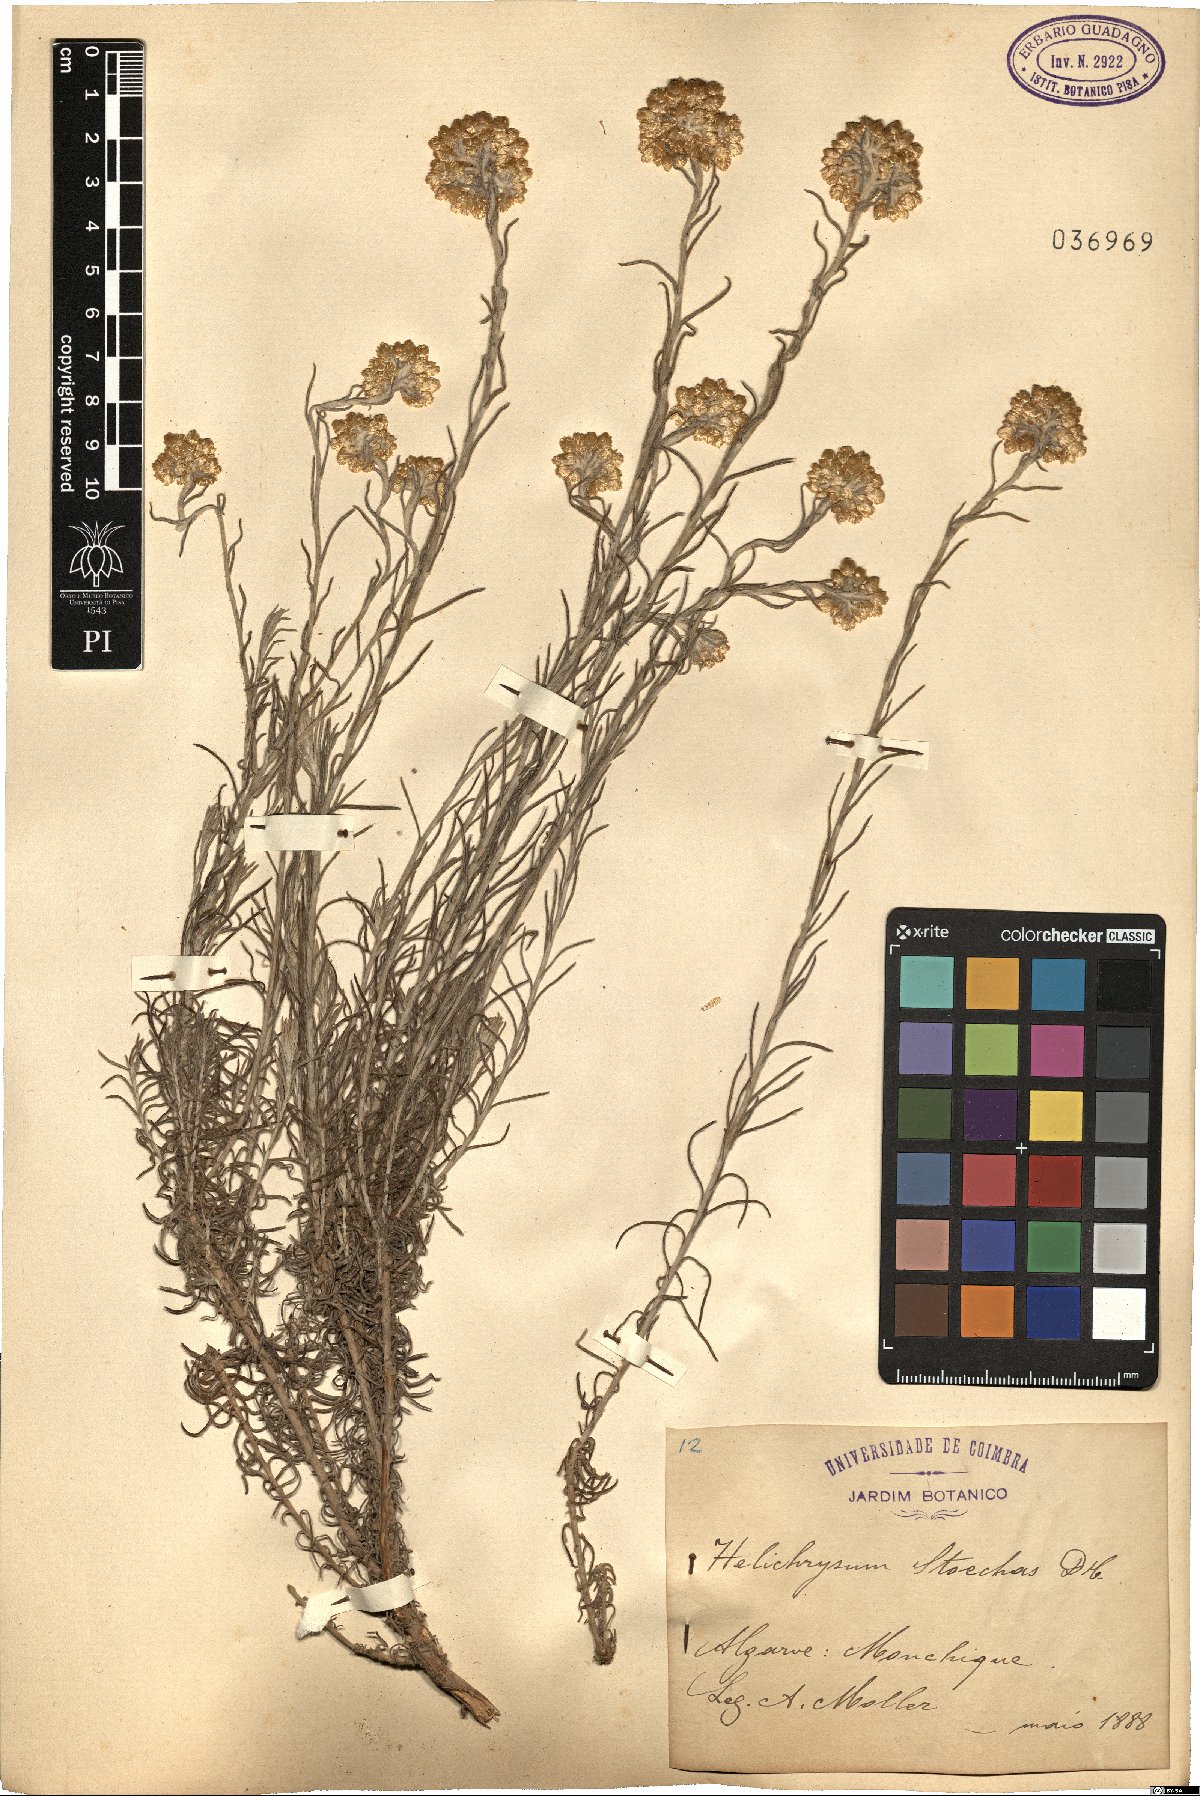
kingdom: Plantae
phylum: Tracheophyta
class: Magnoliopsida
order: Asterales
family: Asteraceae
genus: Helichrysum
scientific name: Helichrysum stoechas
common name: Goldilocks
